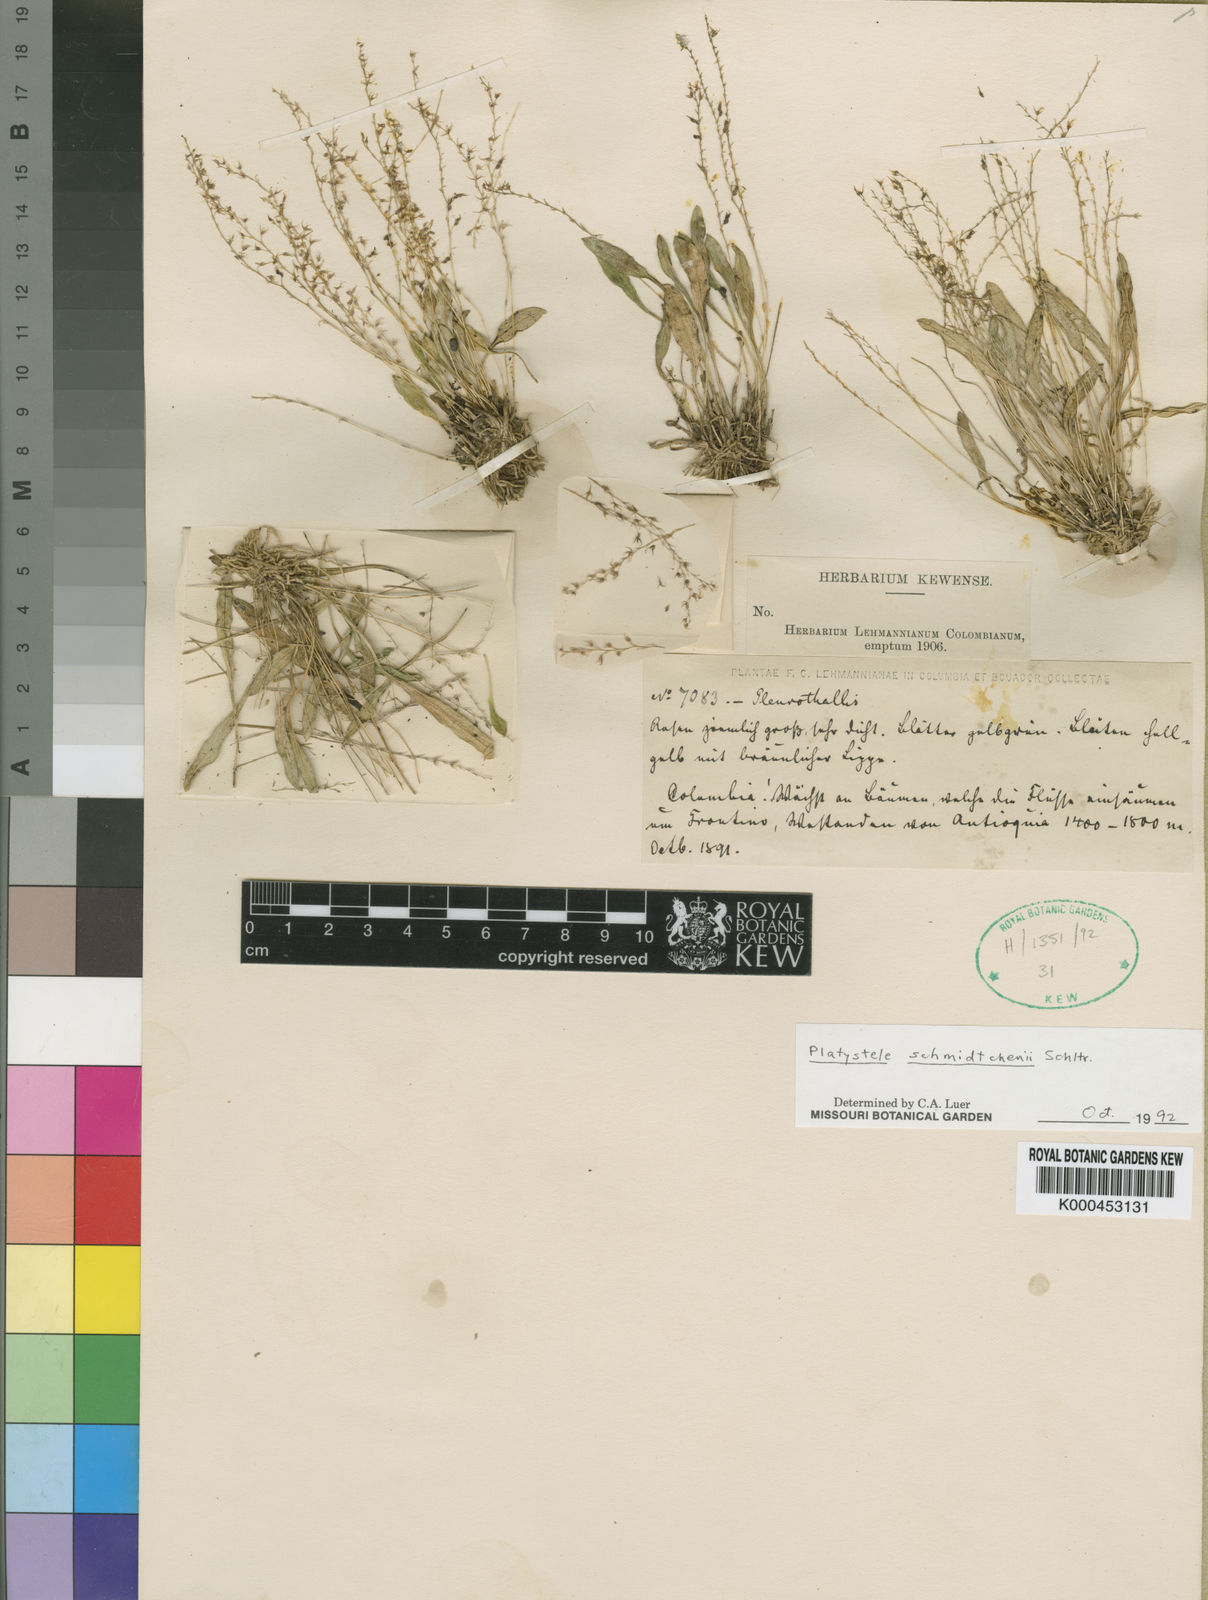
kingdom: Plantae
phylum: Tracheophyta
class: Liliopsida
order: Asparagales
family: Orchidaceae
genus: Platystele
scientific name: Platystele schmidtchenii
